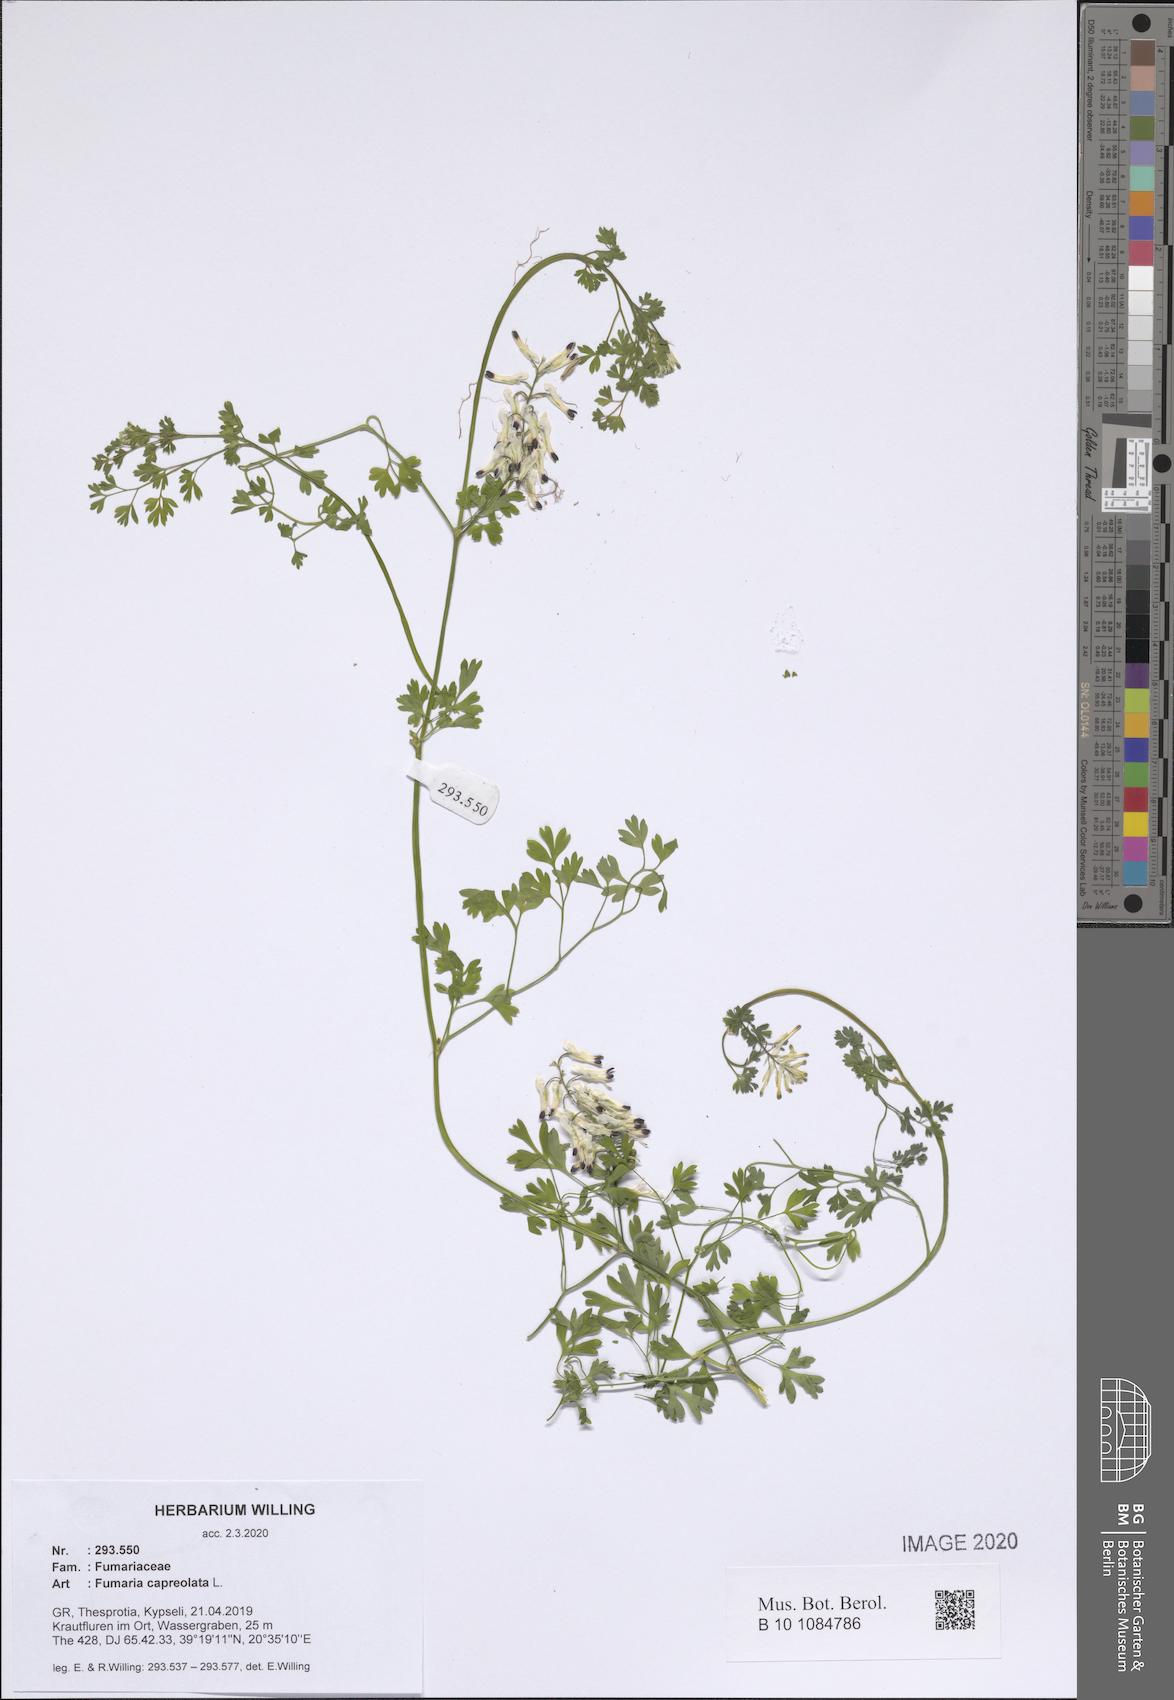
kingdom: Plantae
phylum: Tracheophyta
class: Magnoliopsida
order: Ranunculales
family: Papaveraceae
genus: Fumaria
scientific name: Fumaria capreolata
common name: White ramping-fumitory
